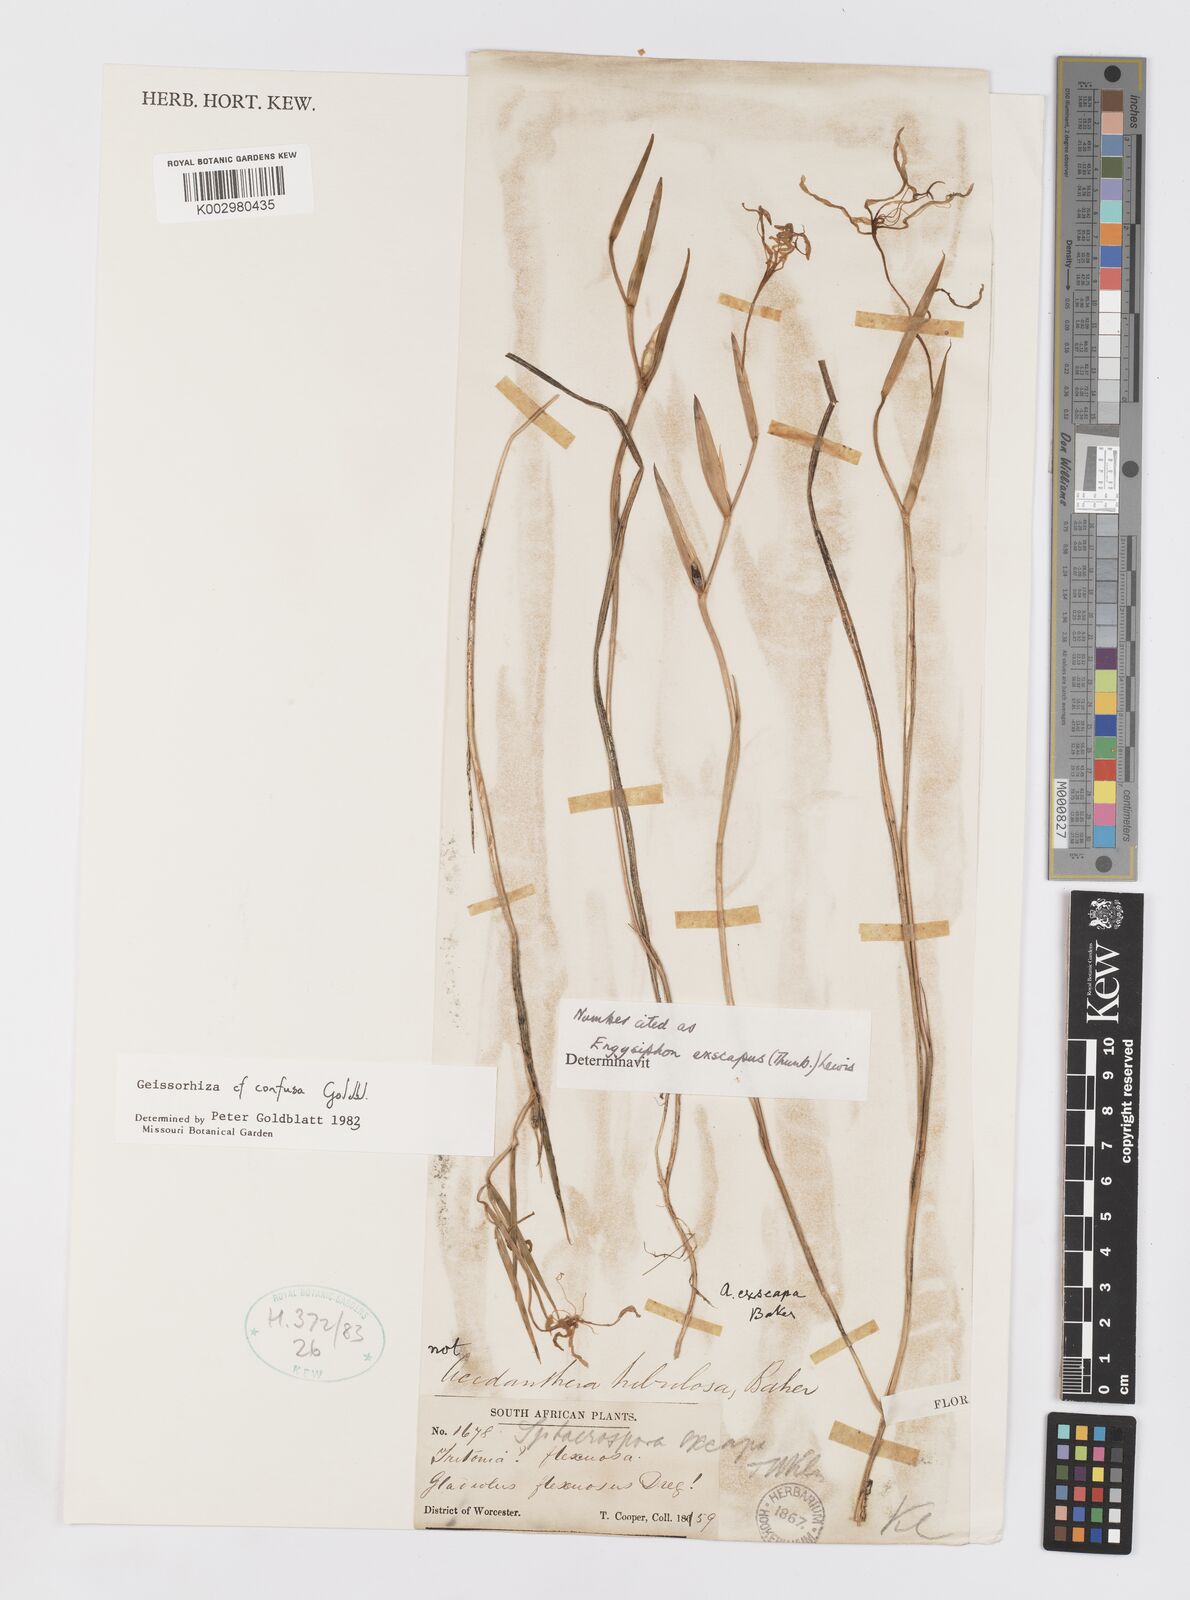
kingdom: Plantae
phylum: Tracheophyta
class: Liliopsida
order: Asparagales
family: Iridaceae
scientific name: Iridaceae
